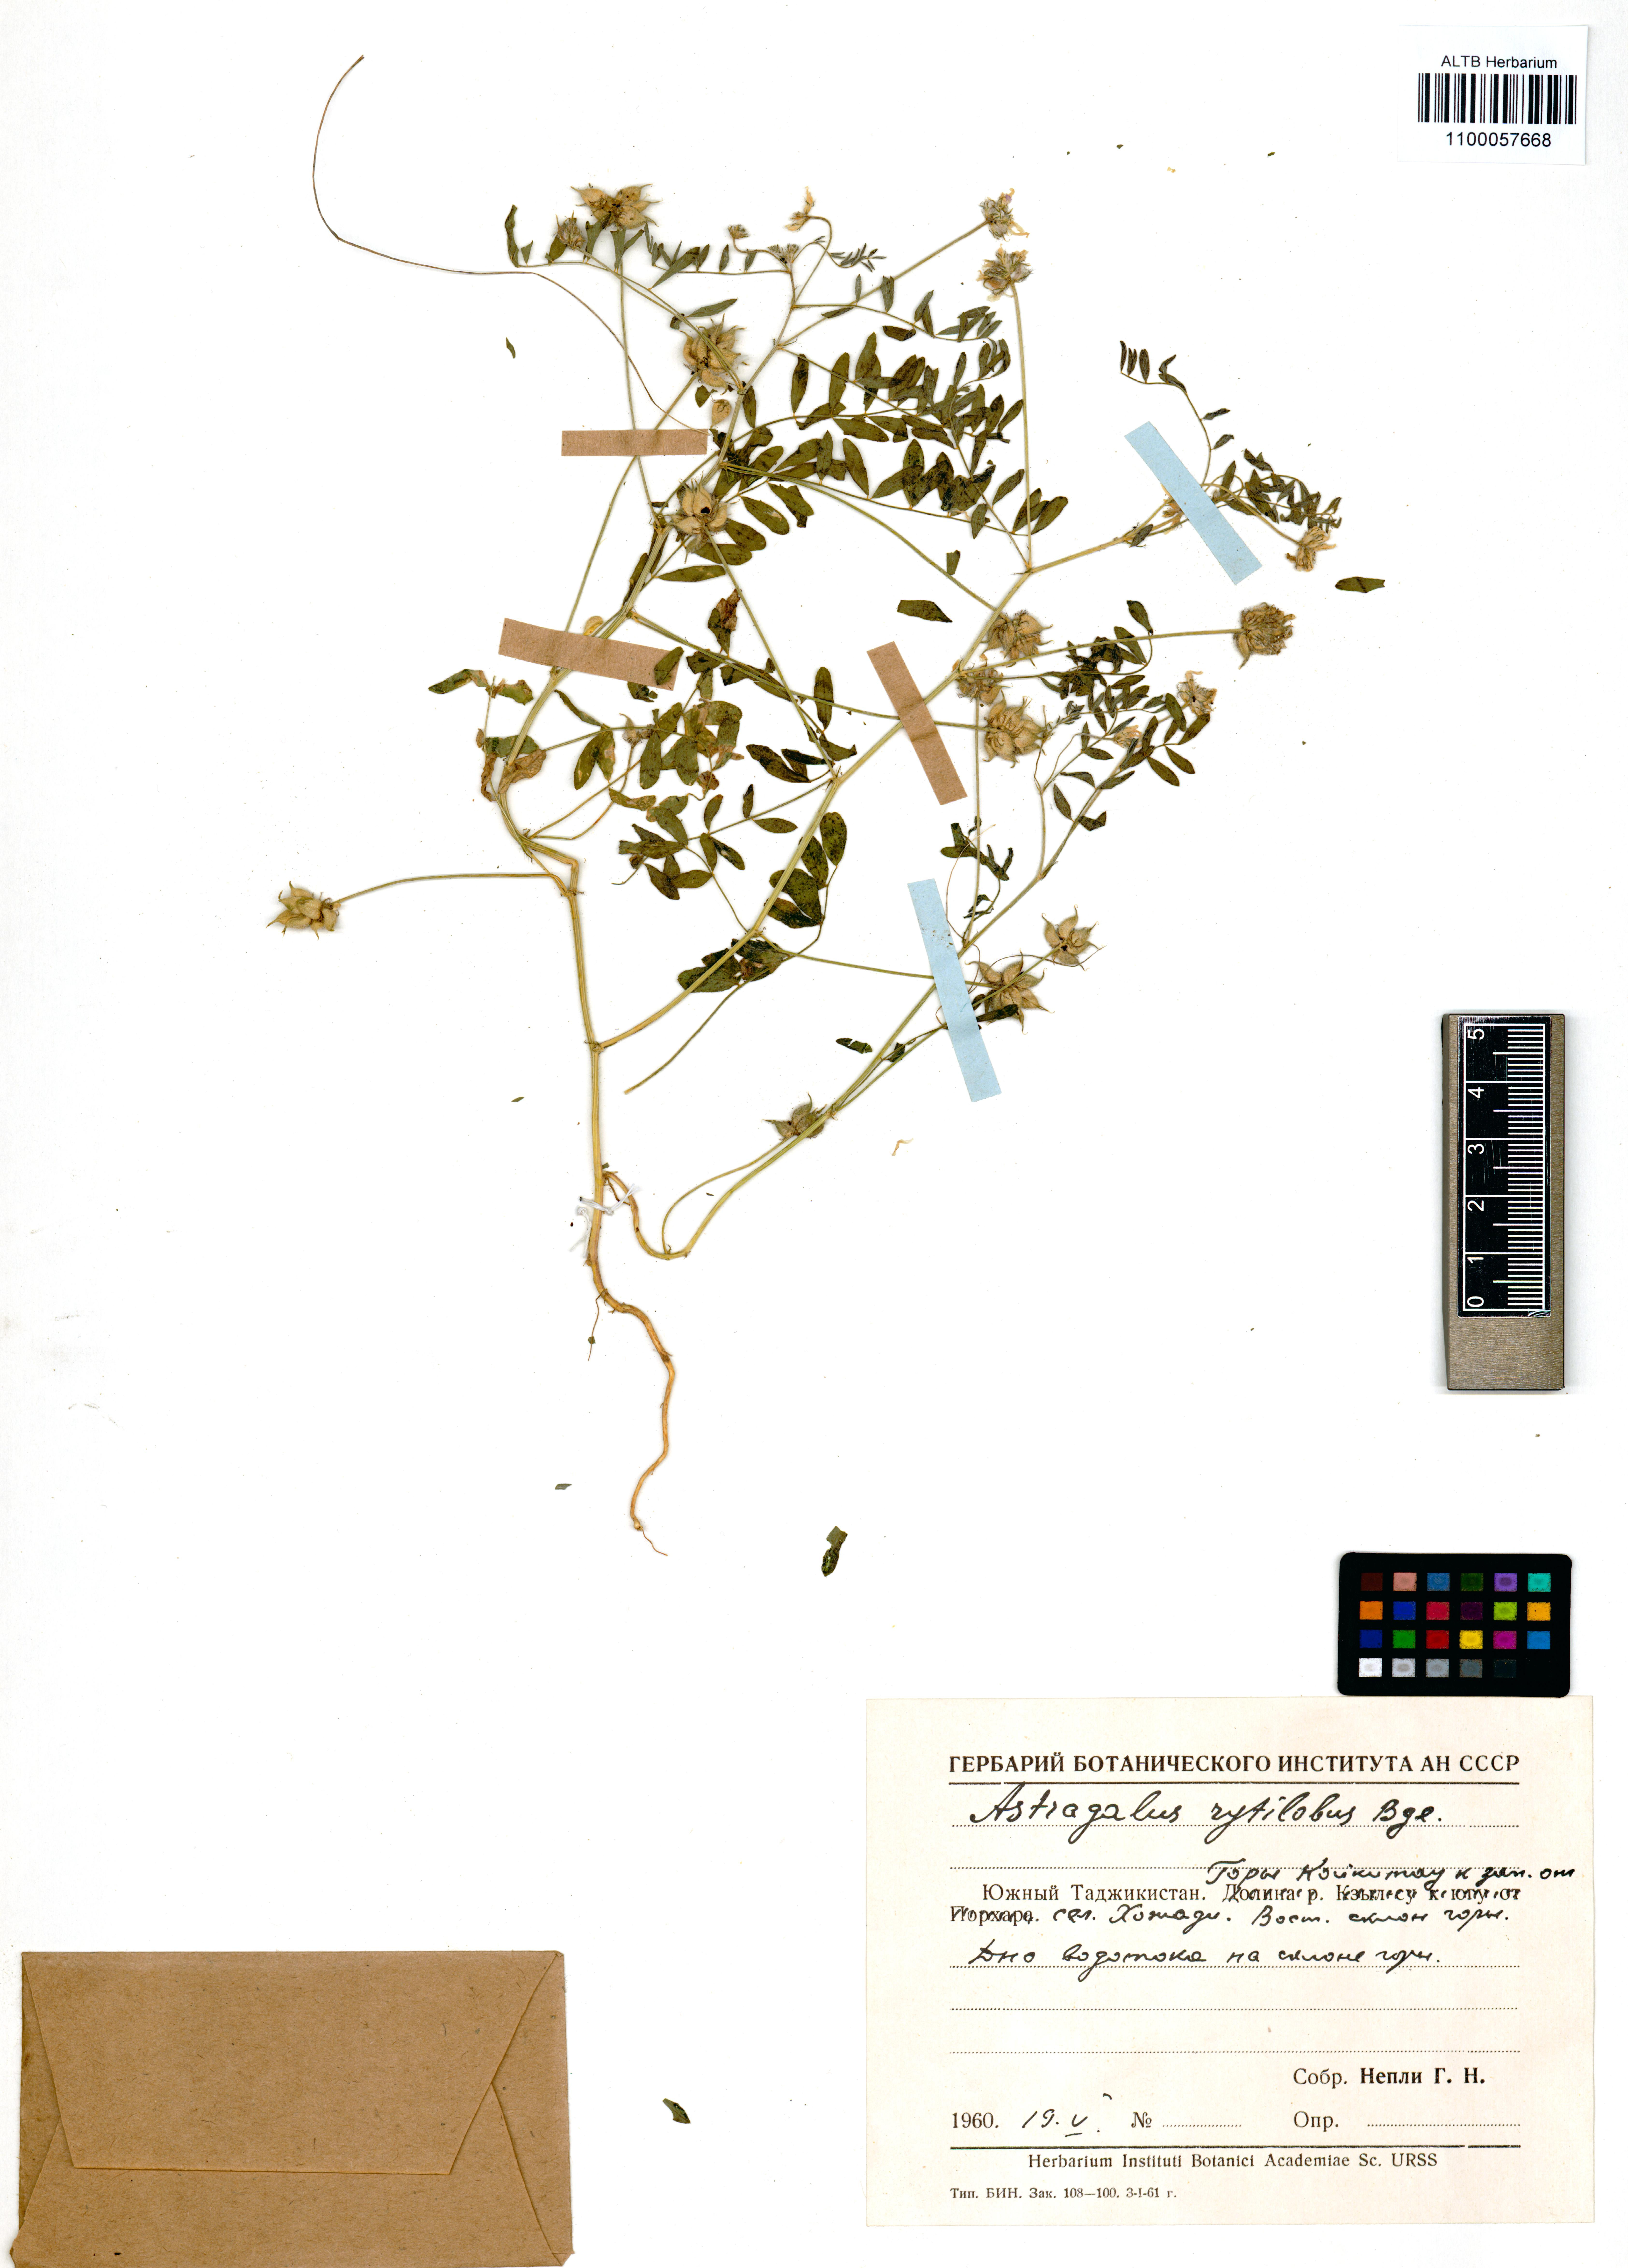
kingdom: Plantae
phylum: Tracheophyta
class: Magnoliopsida
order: Fabales
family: Fabaceae
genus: Astragalus
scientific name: Astragalus filicaulis
